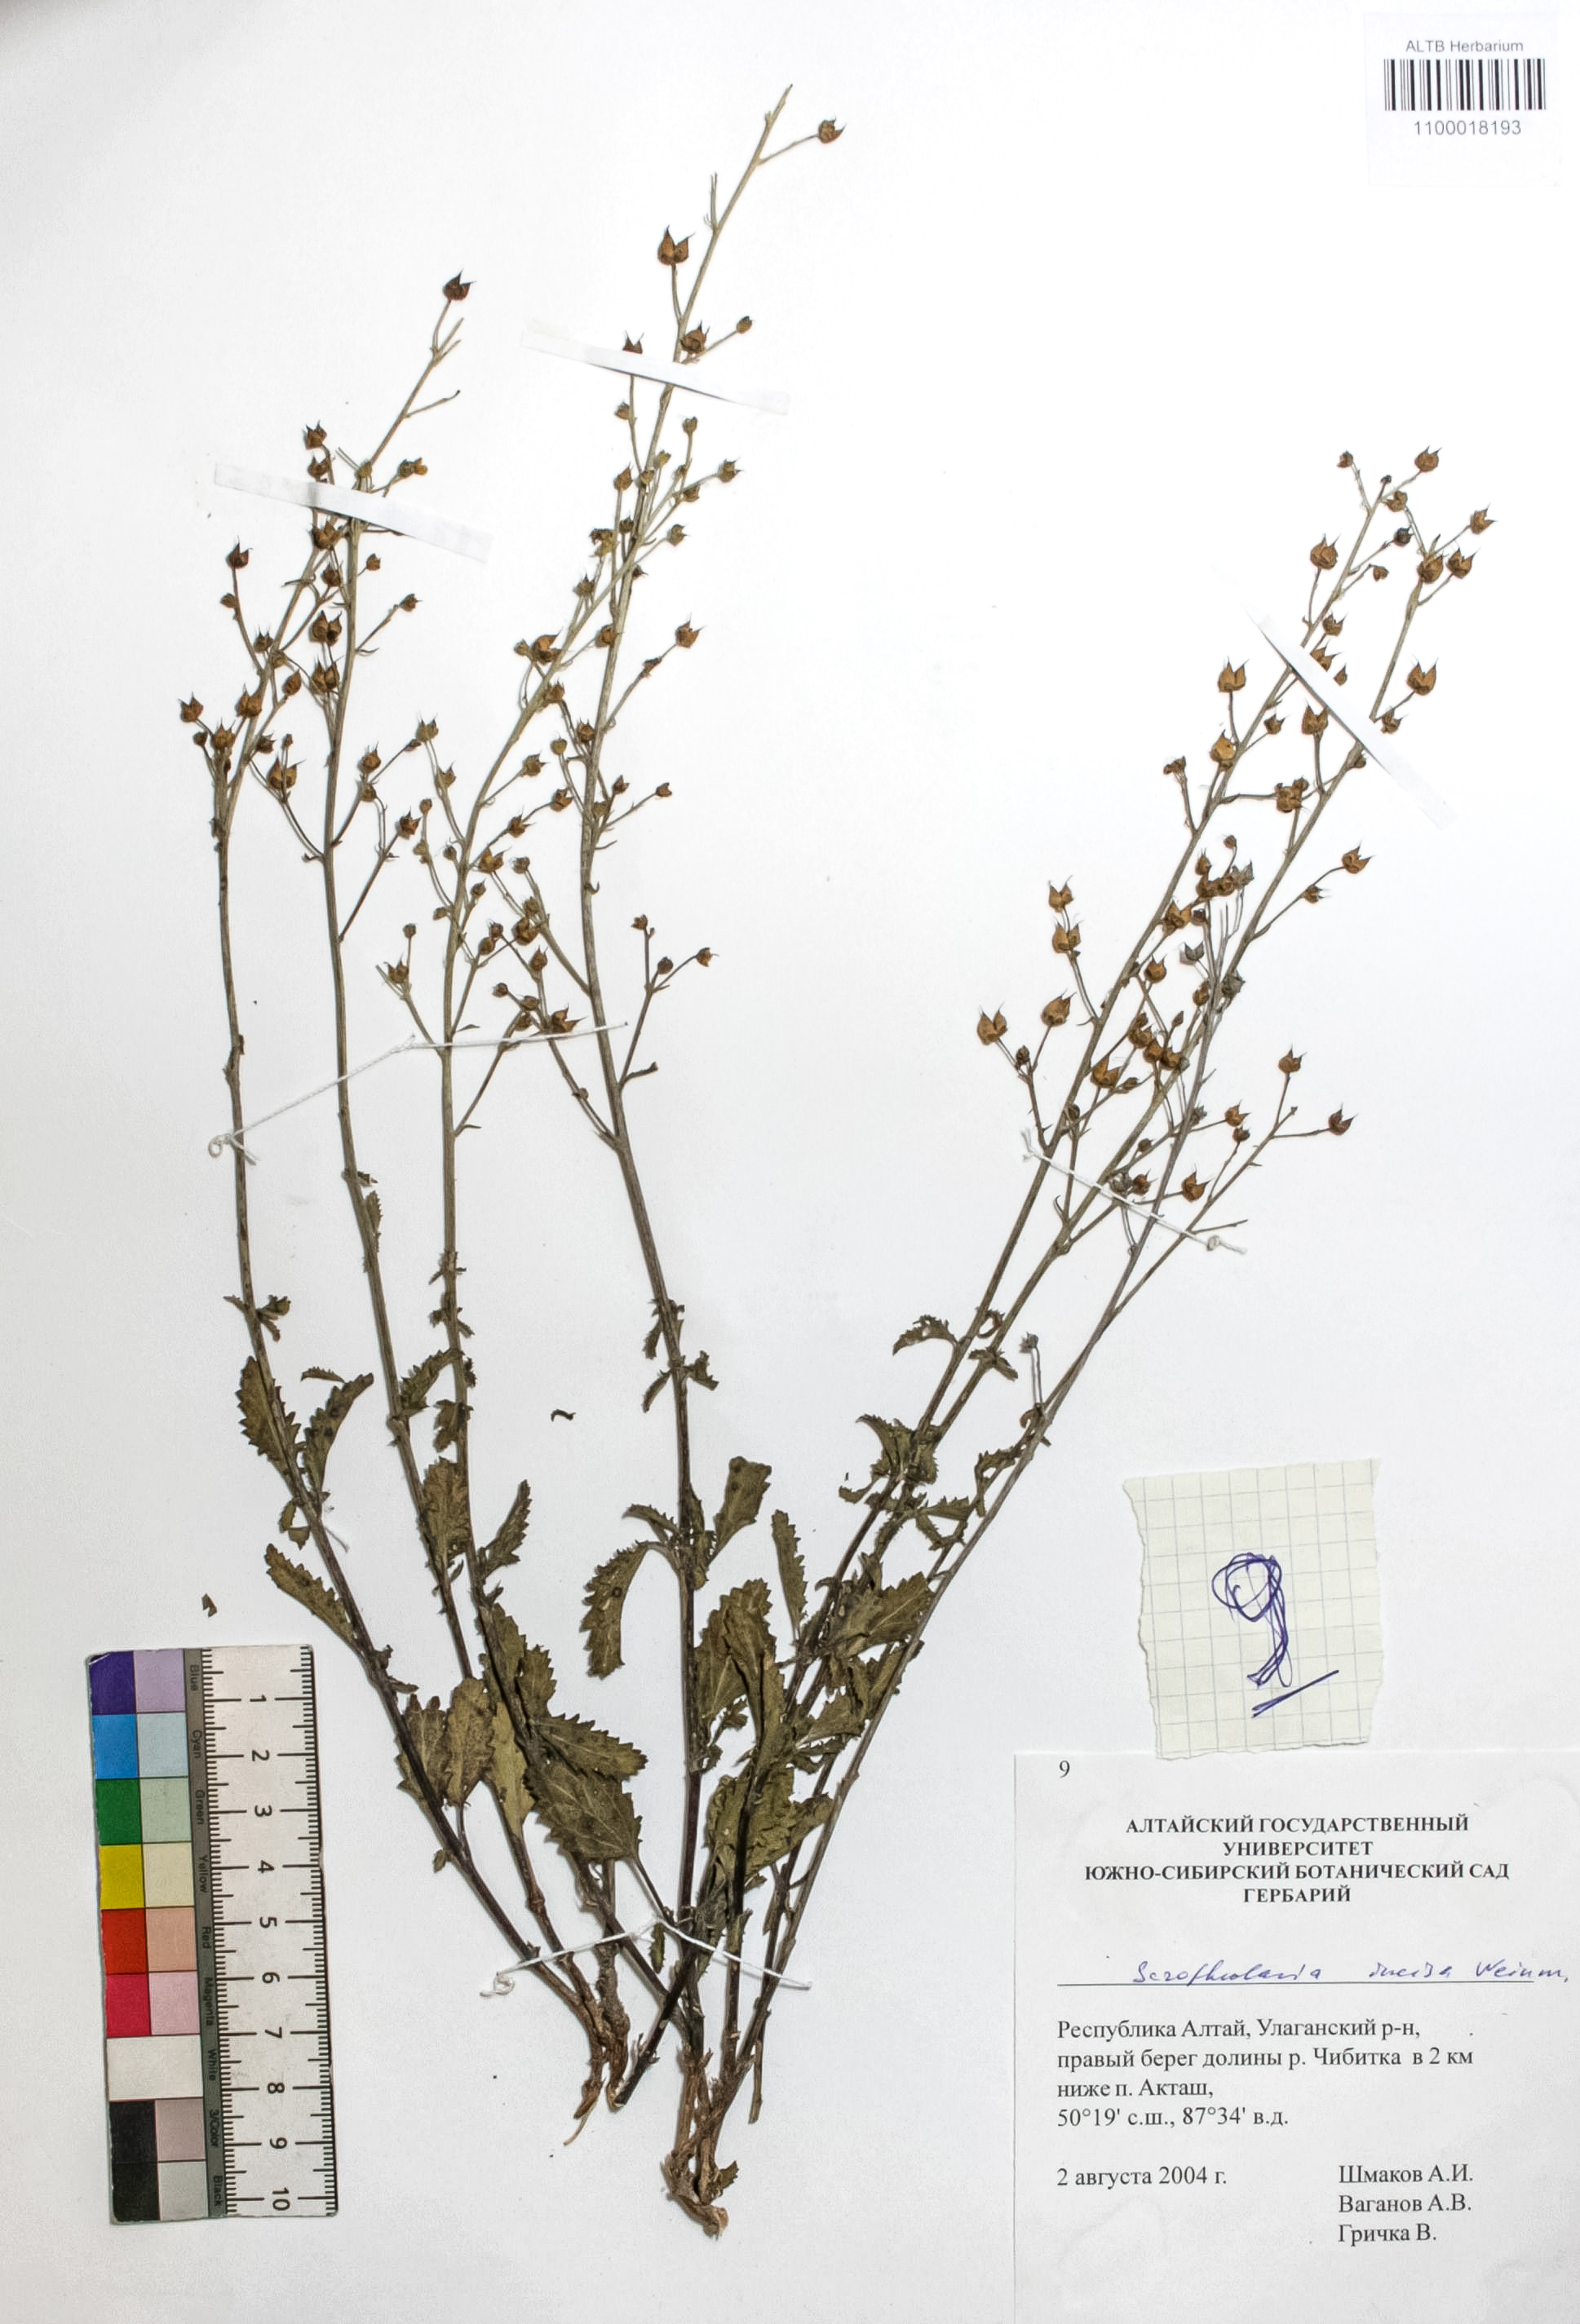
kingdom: Plantae
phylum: Tracheophyta
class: Magnoliopsida
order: Lamiales
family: Scrophulariaceae
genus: Scrophularia
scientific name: Scrophularia incisa
